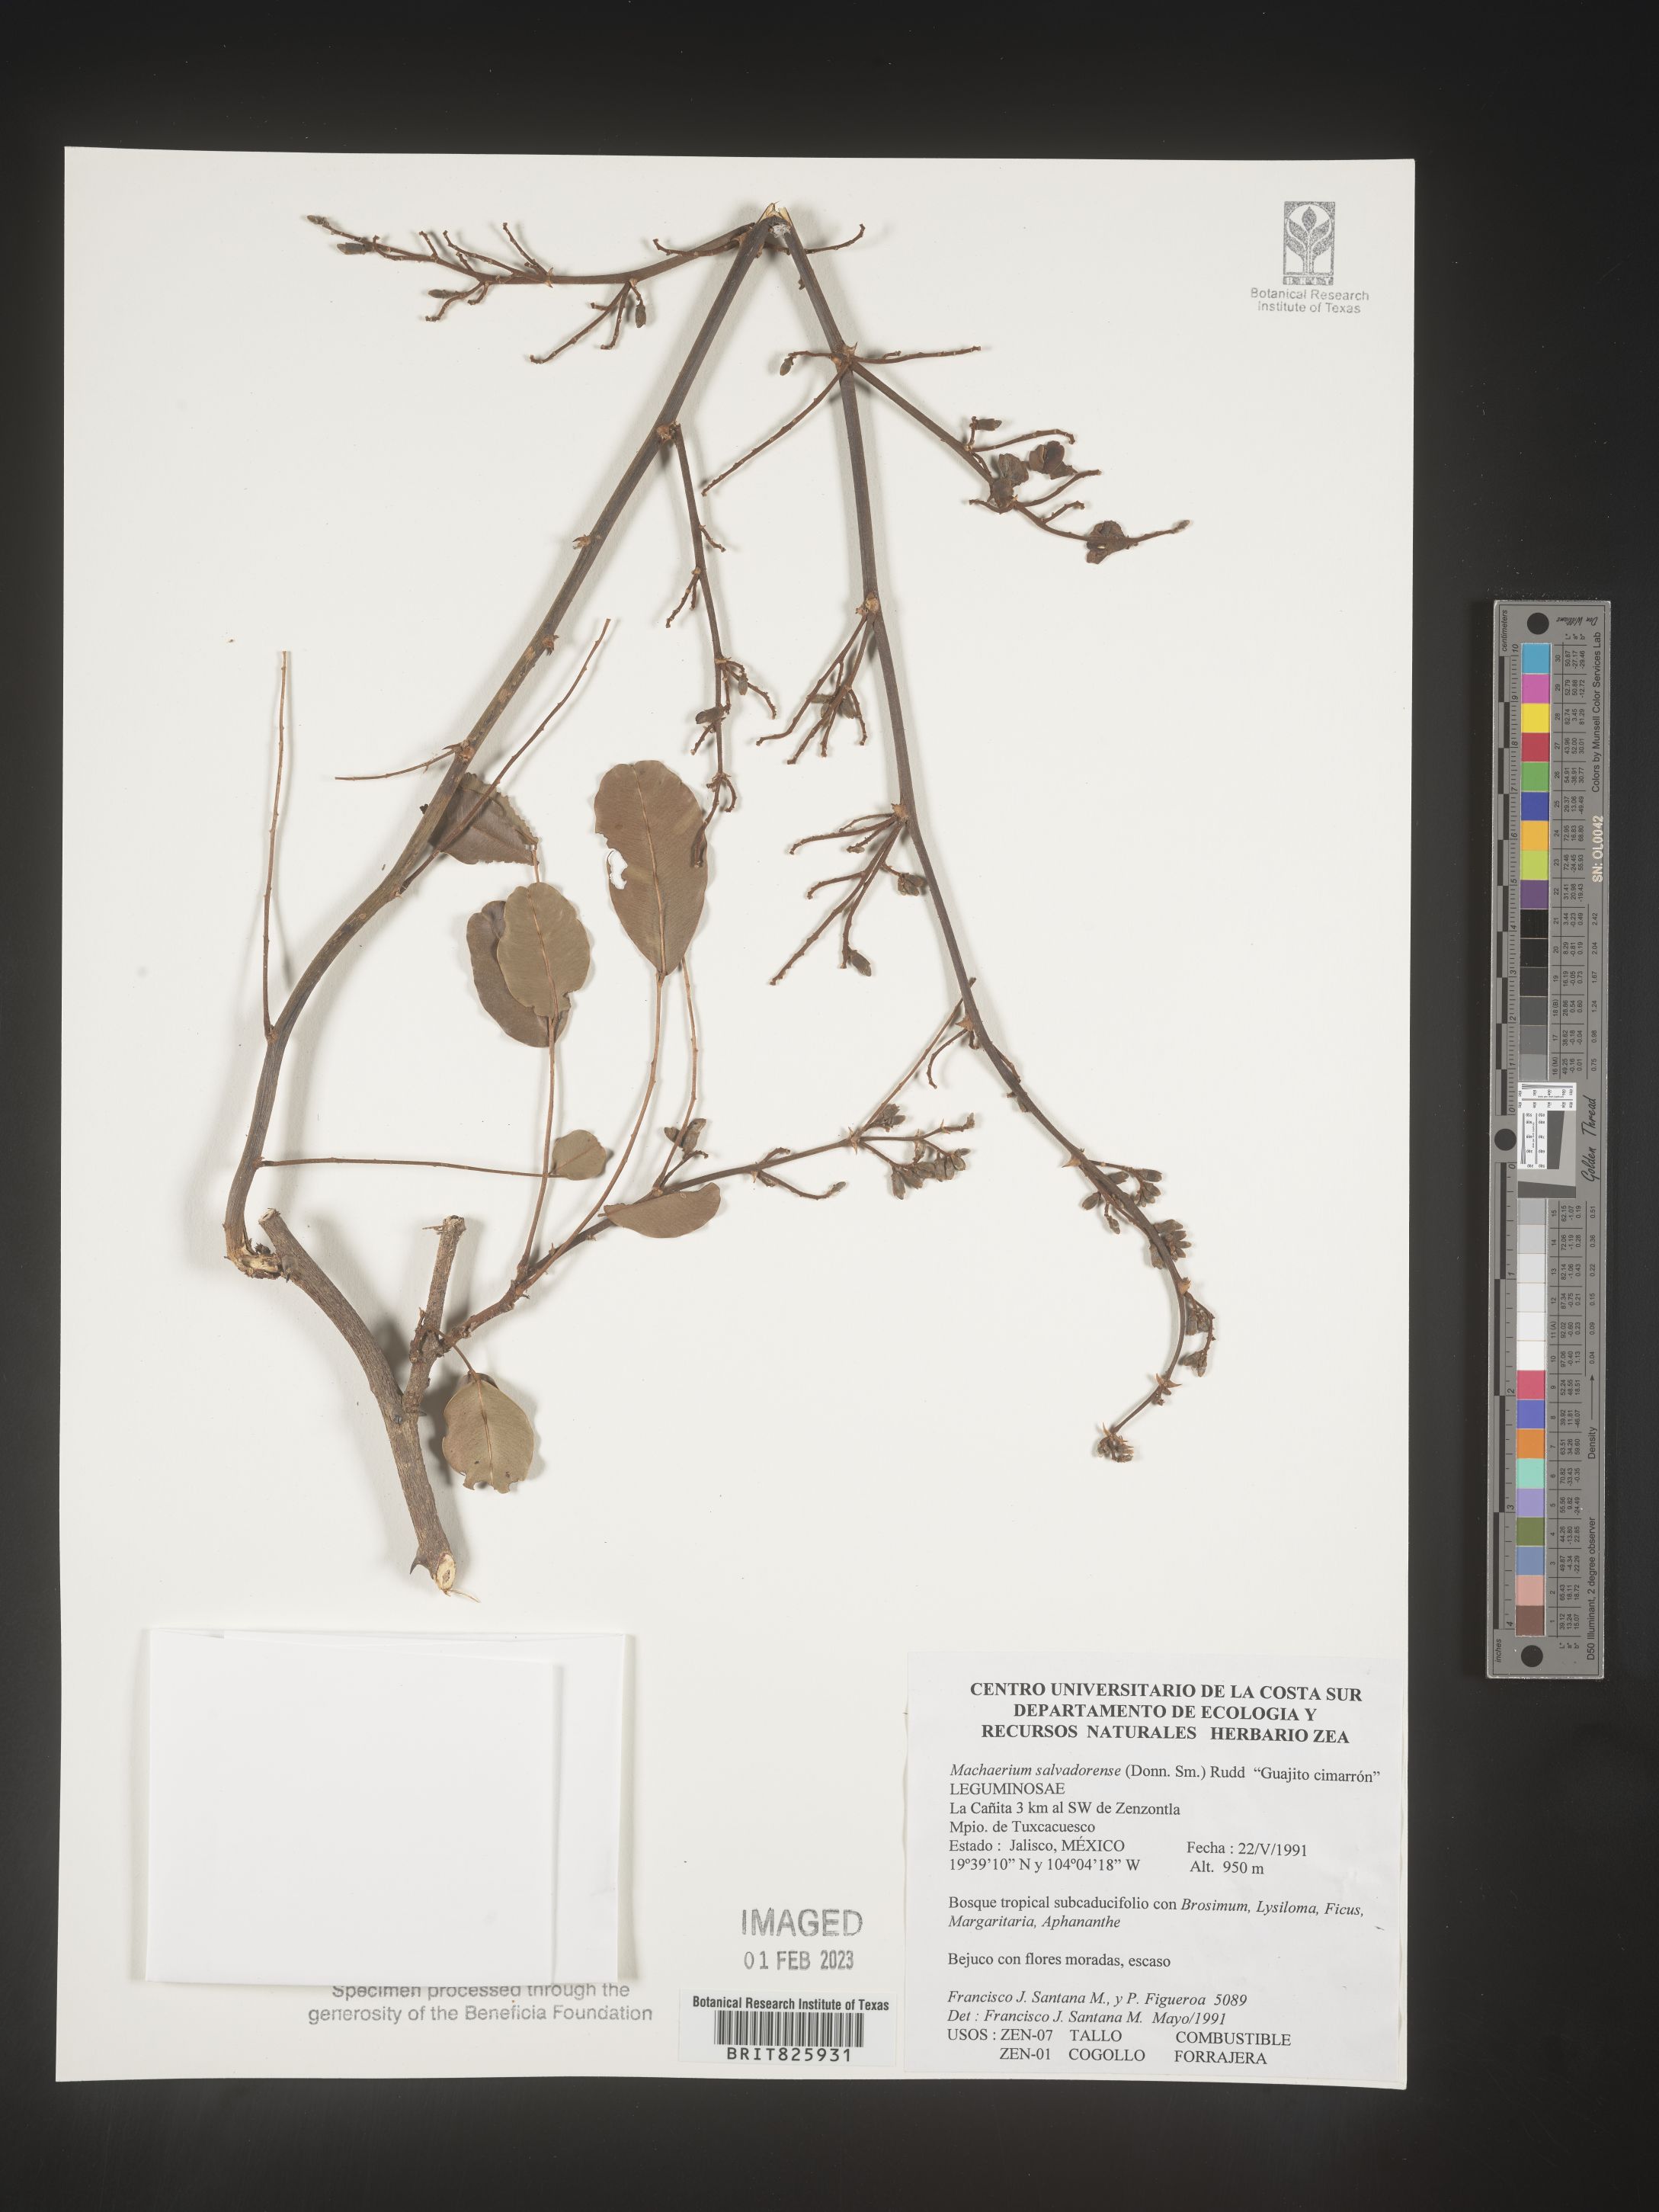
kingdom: Plantae
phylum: Tracheophyta
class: Magnoliopsida
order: Fabales
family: Fabaceae
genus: Machaerium
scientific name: Machaerium
